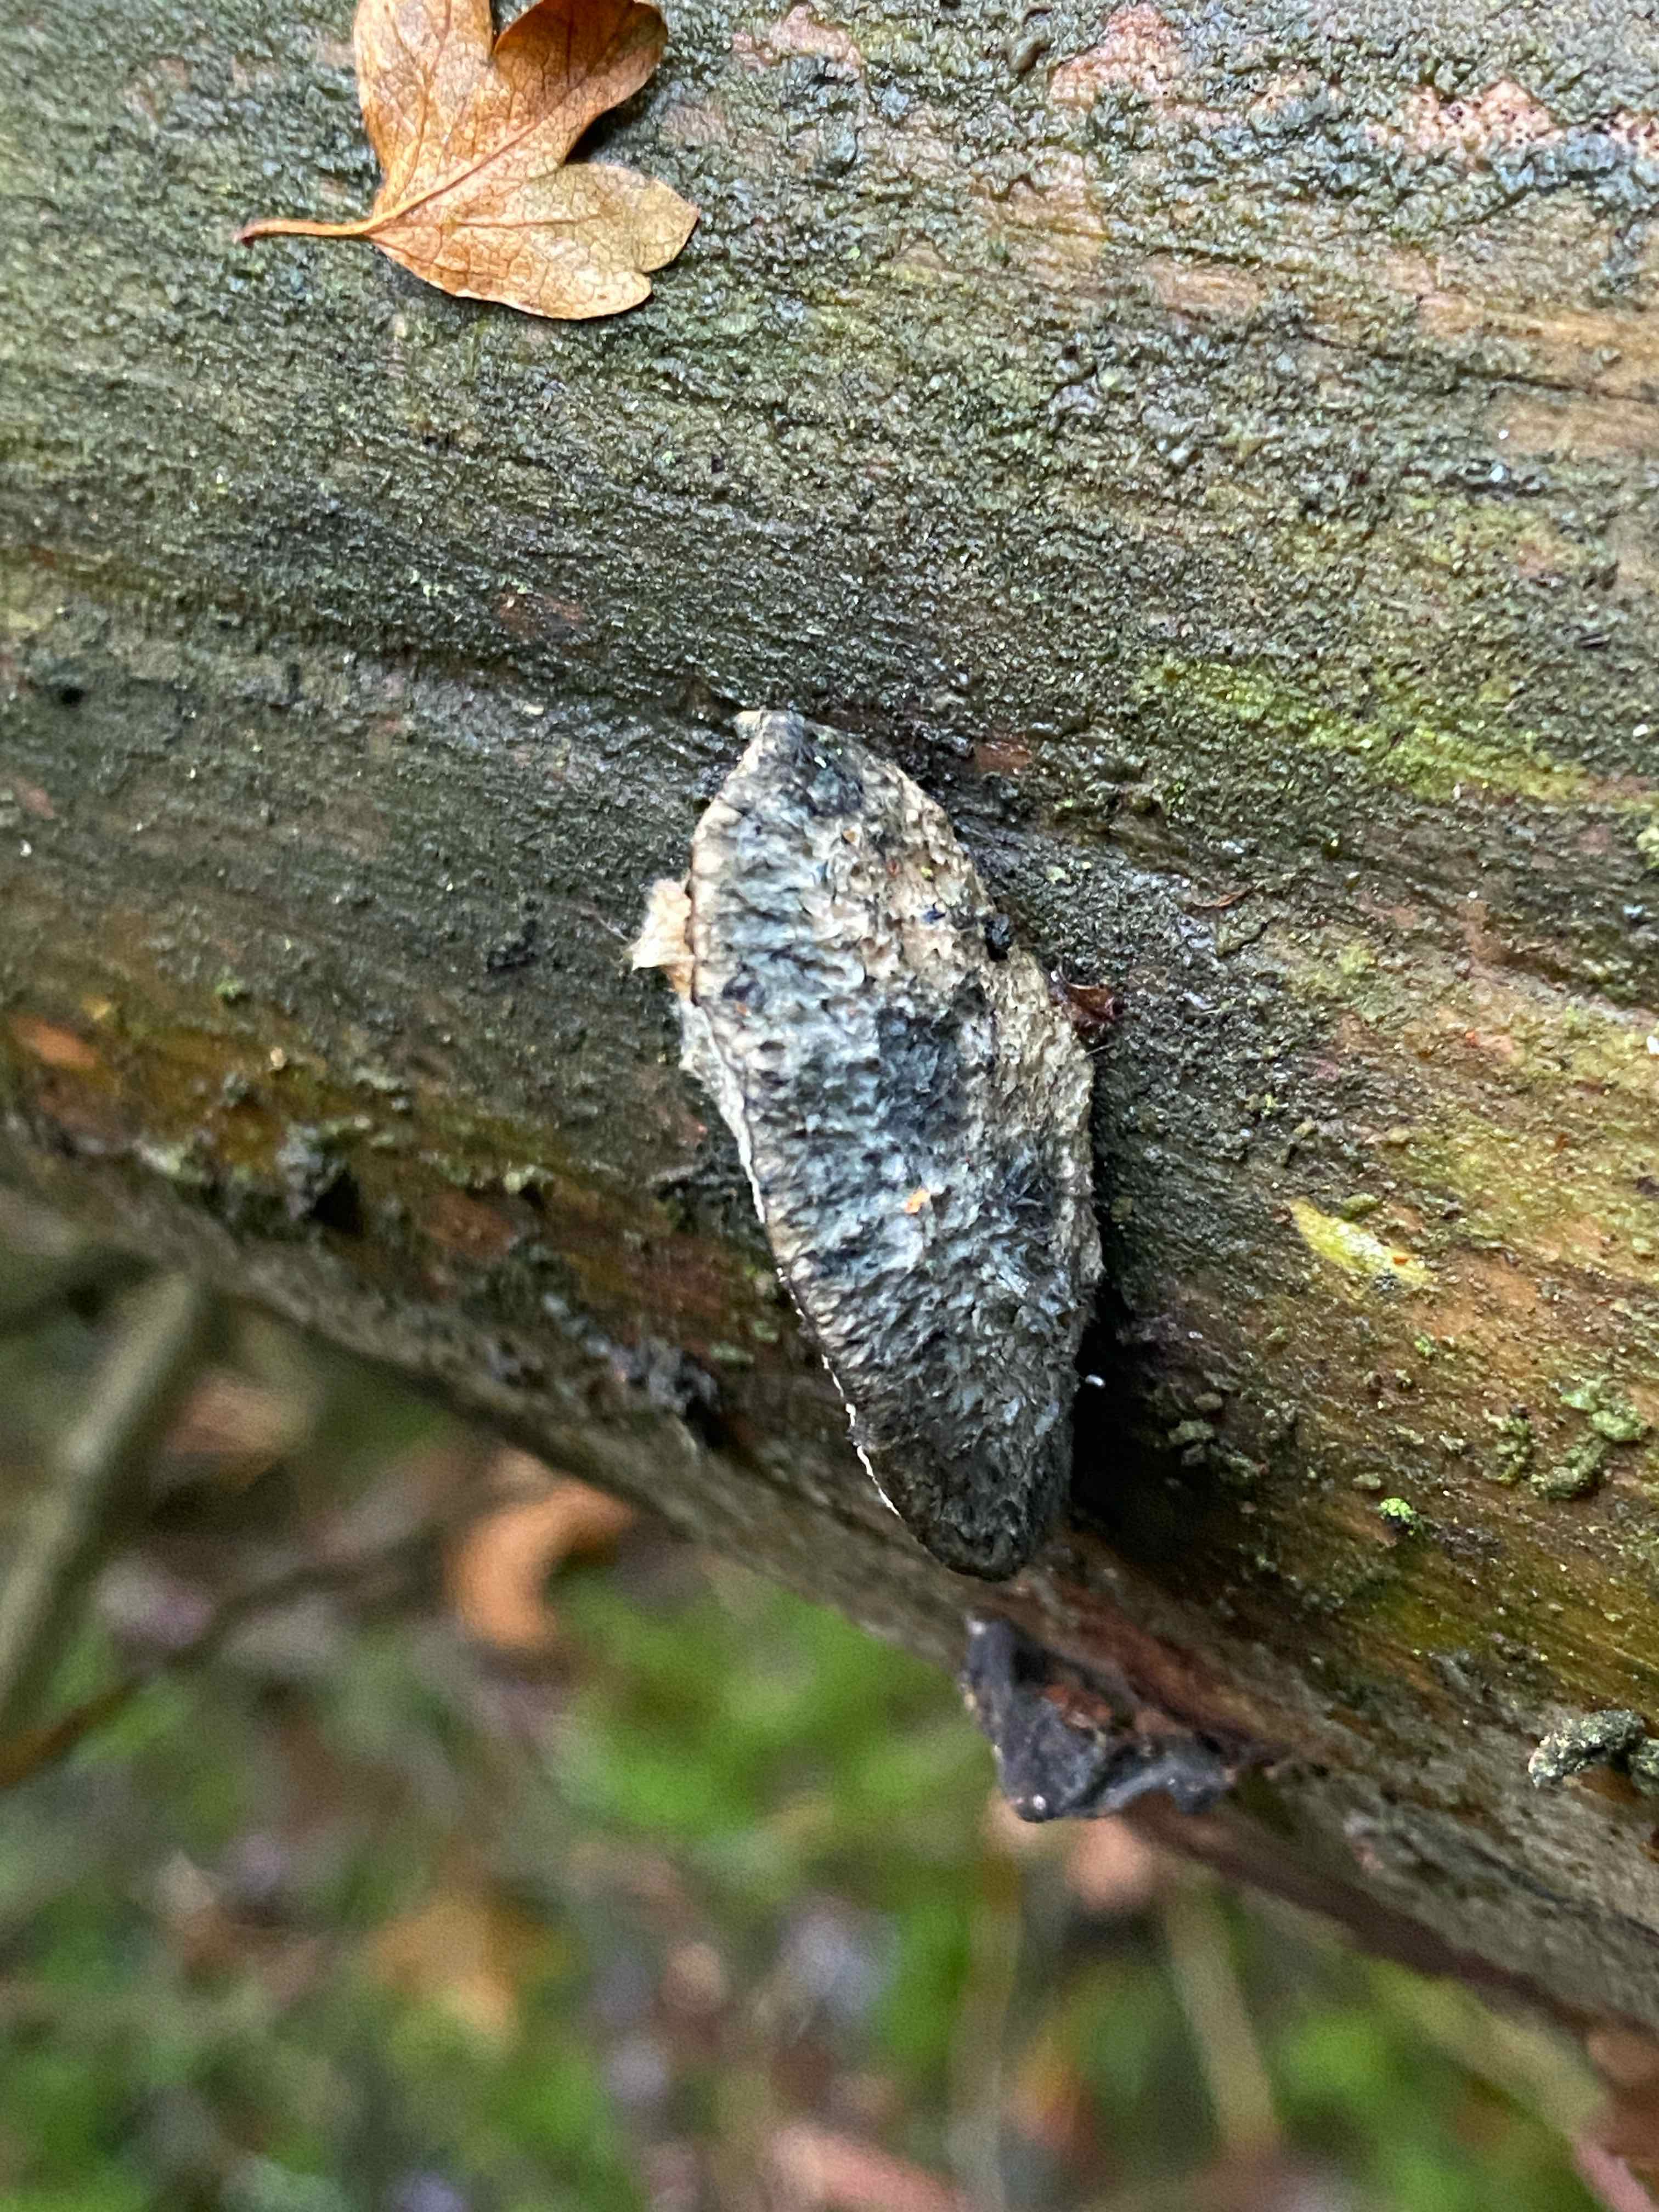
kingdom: Fungi
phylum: Basidiomycota
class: Agaricomycetes
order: Polyporales
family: Polyporaceae
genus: Cyanosporus
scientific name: Cyanosporus caesius
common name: blålig kødporesvamp
